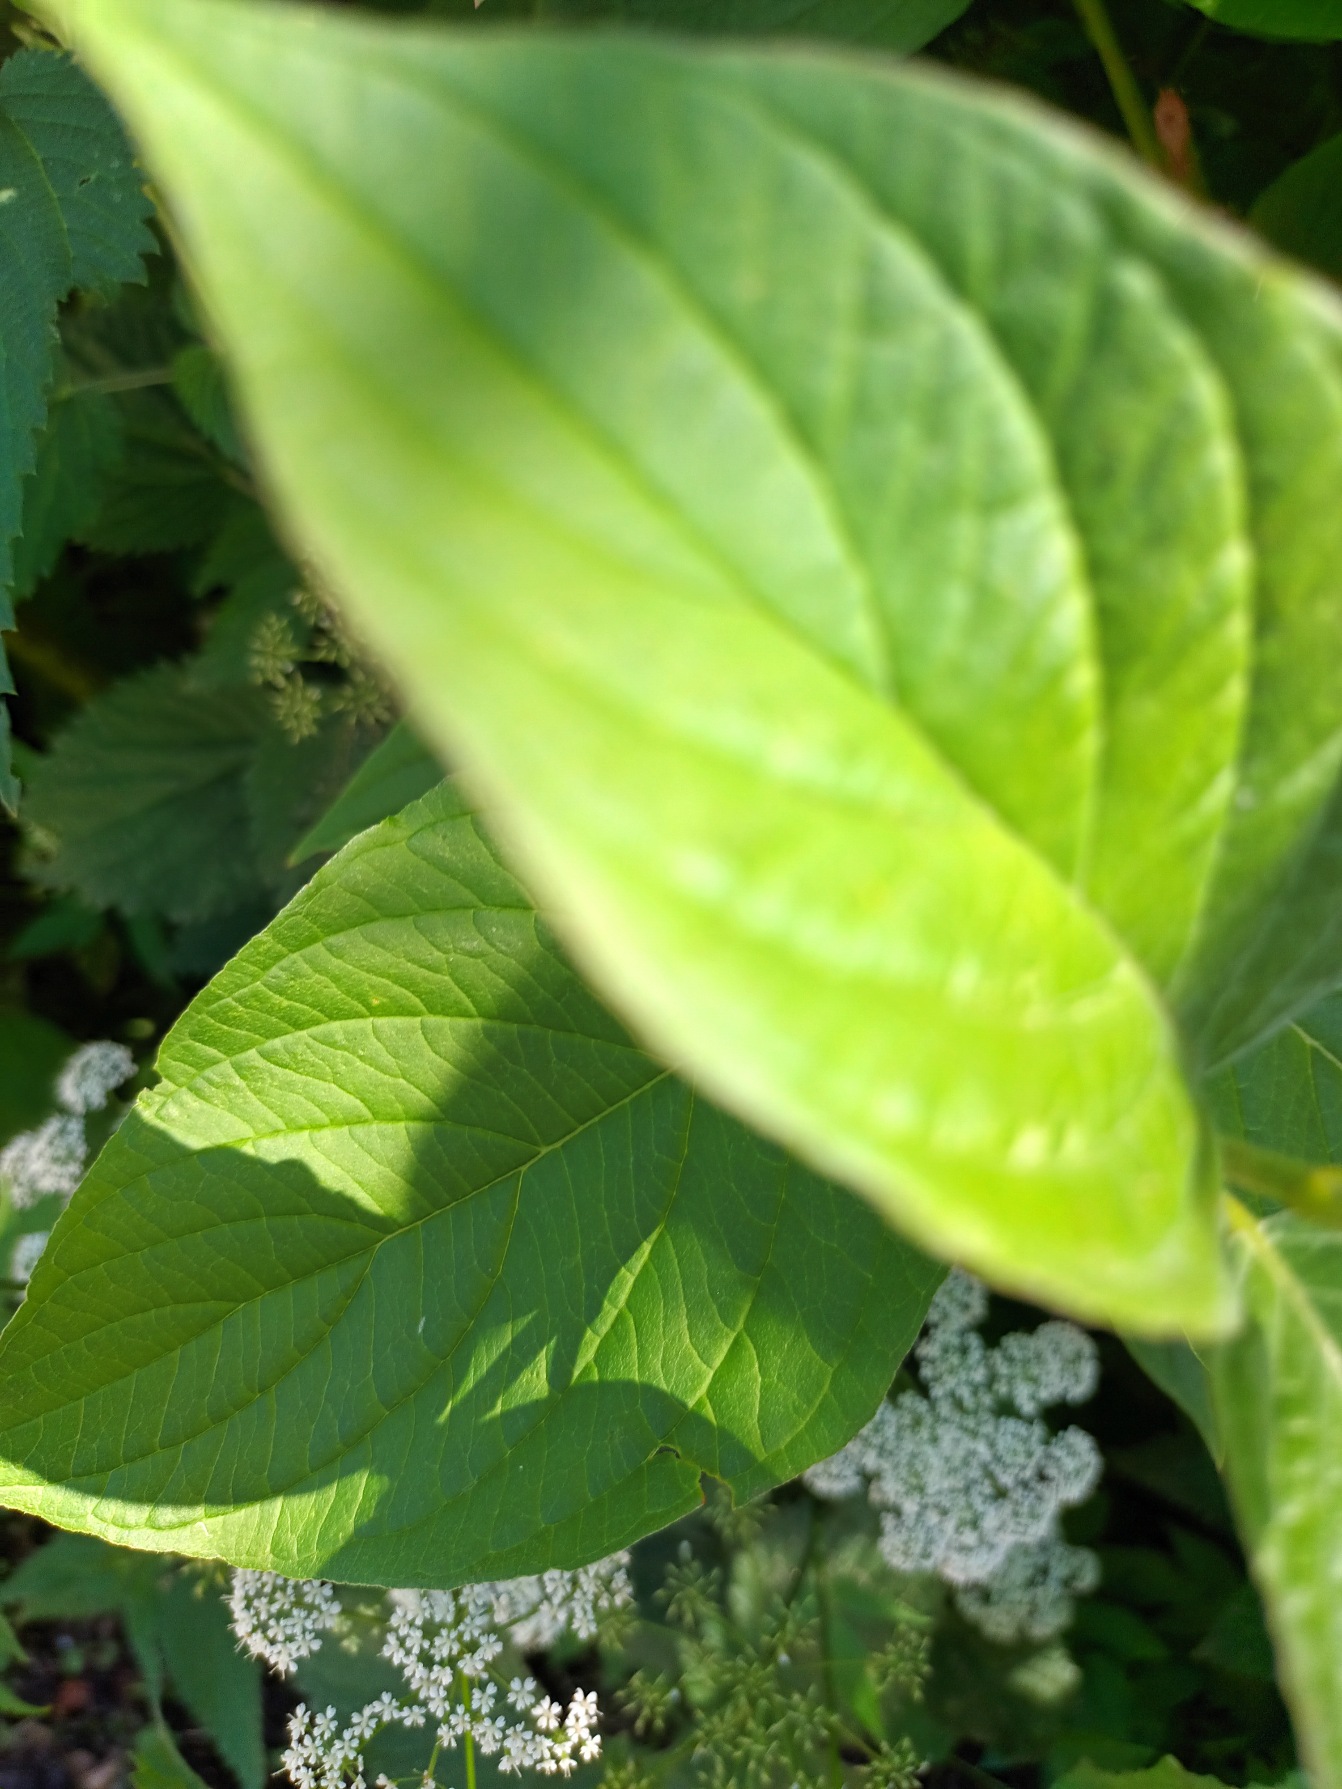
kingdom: Plantae
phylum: Tracheophyta
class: Magnoliopsida
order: Cornales
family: Cornaceae
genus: Cornus
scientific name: Cornus sericea
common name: Krybende kornel
